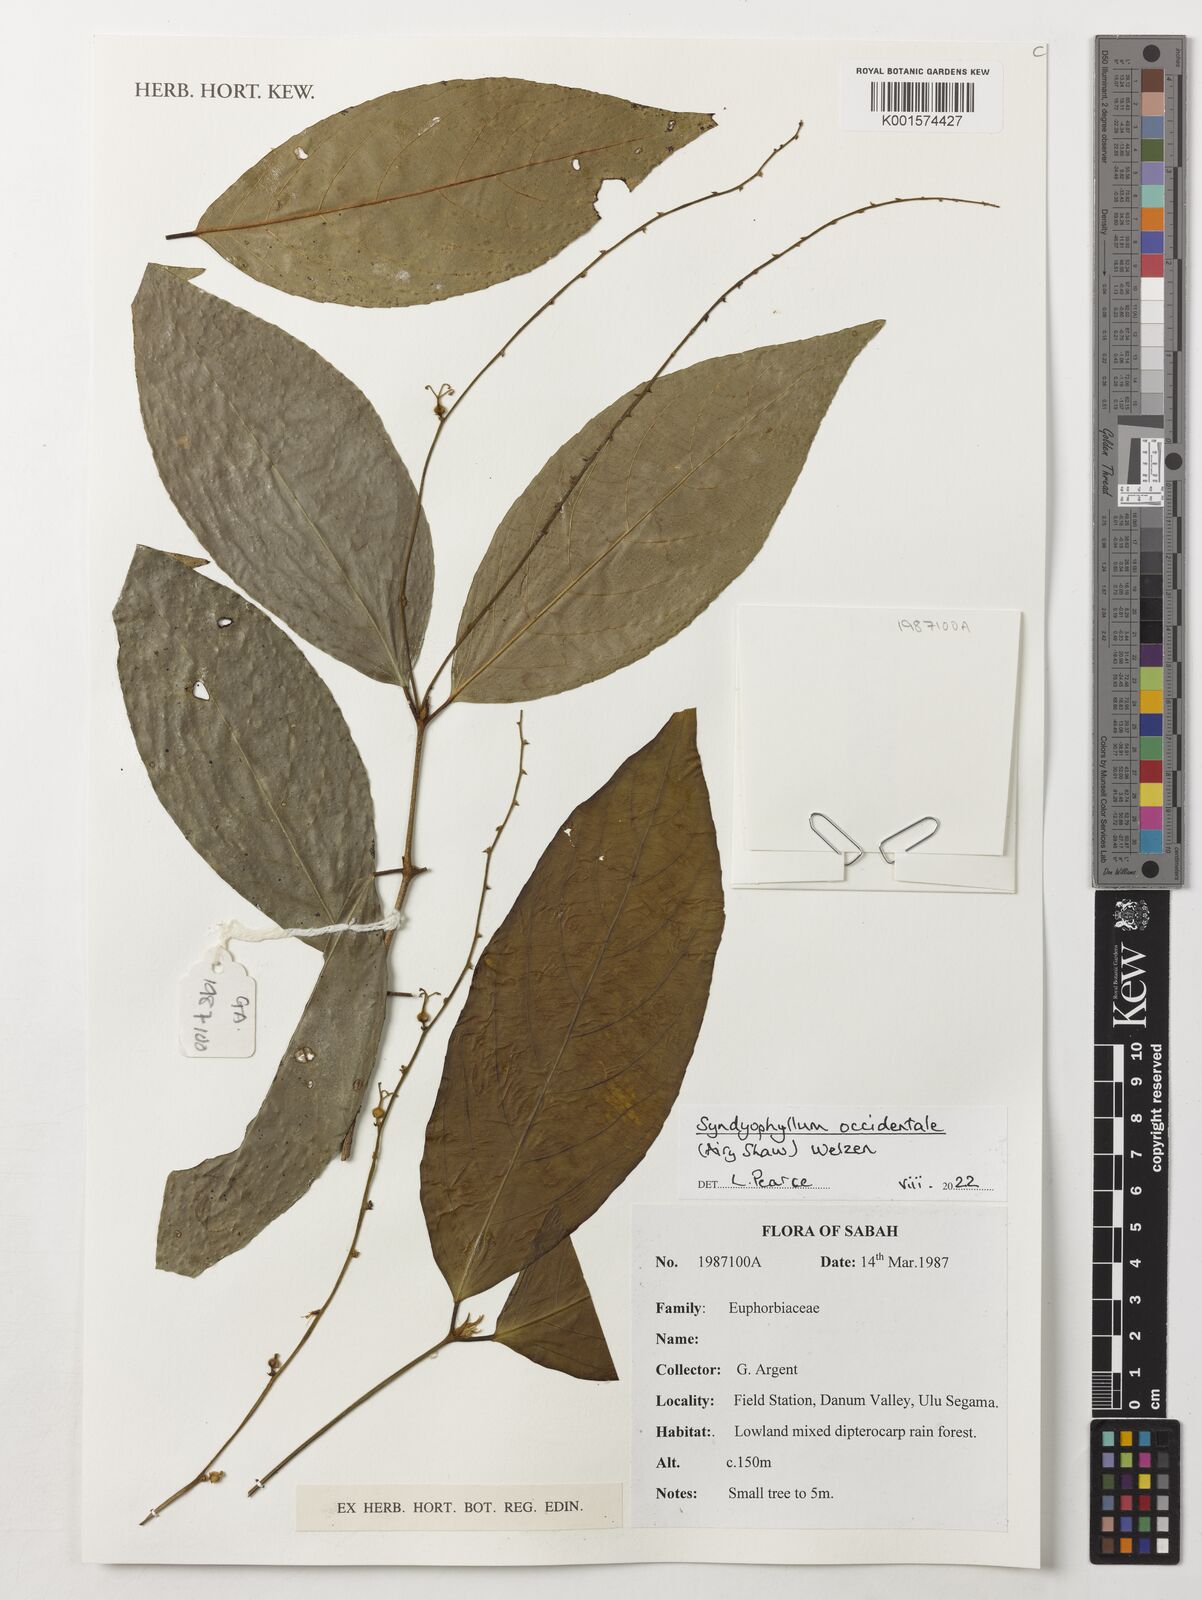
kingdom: Plantae
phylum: Tracheophyta
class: Magnoliopsida
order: Malpighiales
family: Euphorbiaceae
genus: Syndyophyllum
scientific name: Syndyophyllum occidentale
